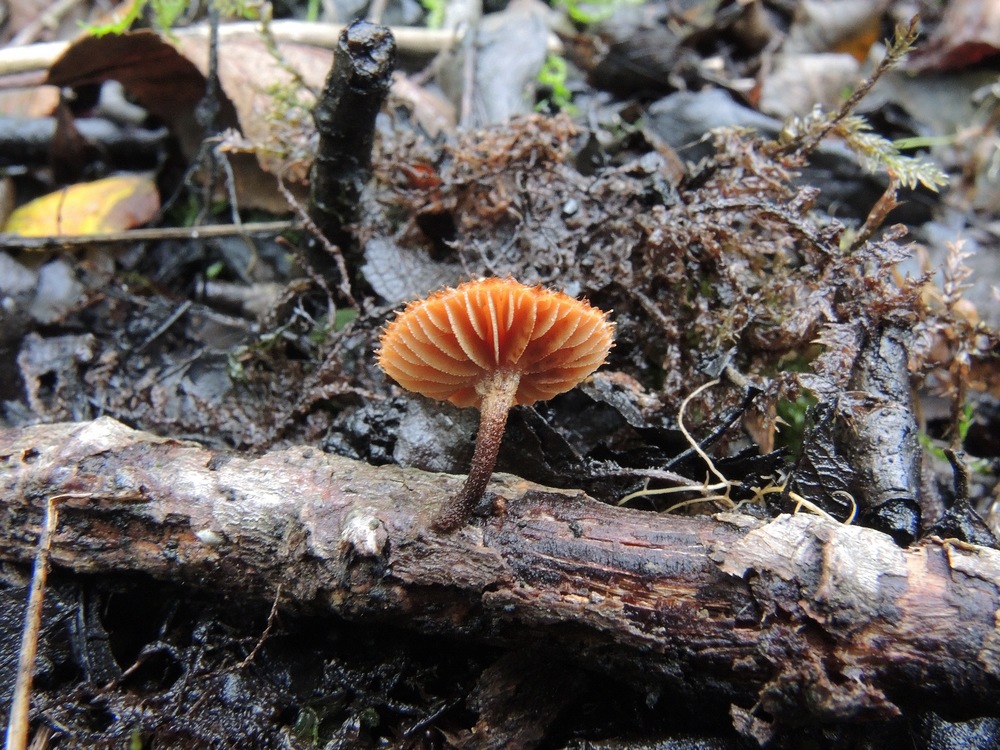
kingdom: Fungi
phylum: Basidiomycota
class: Agaricomycetes
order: Agaricales
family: Tubariaceae
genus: Phaeomarasmius
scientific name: Phaeomarasmius erinaceus
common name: spidsskælhat
